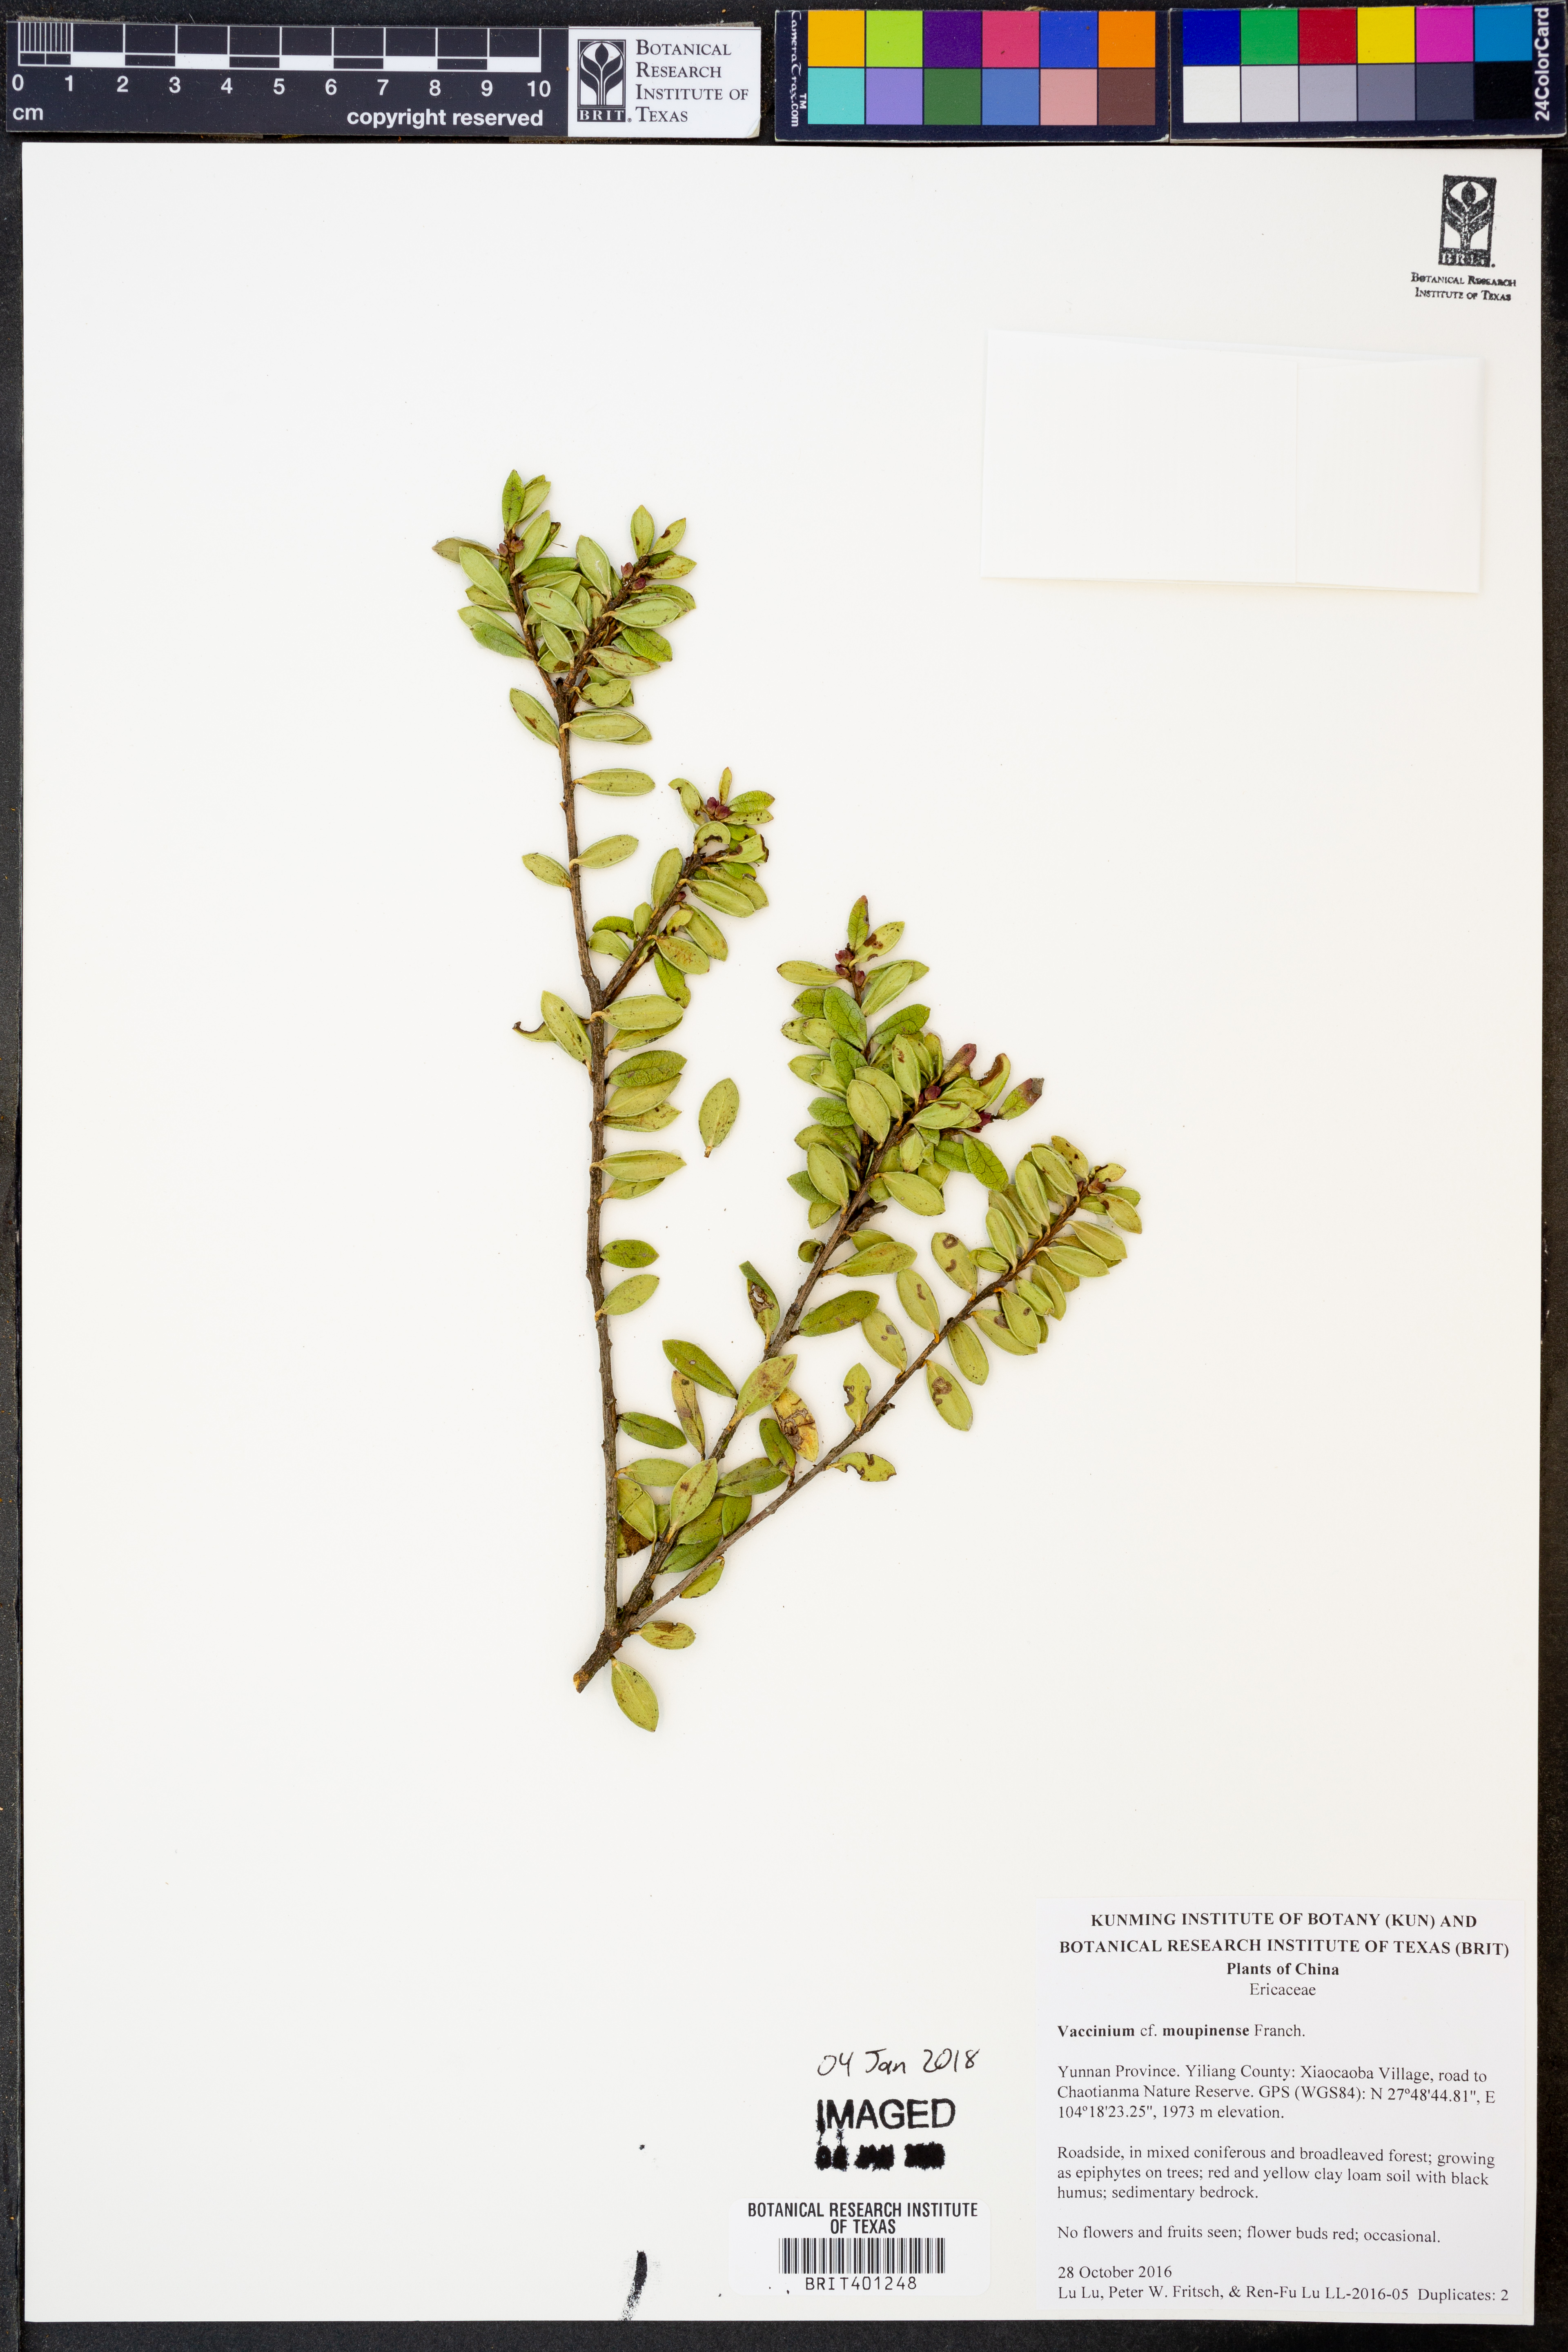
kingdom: Plantae
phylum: Tracheophyta
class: Magnoliopsida
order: Ericales
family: Ericaceae
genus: Vaccinium
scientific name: Vaccinium moupinense
